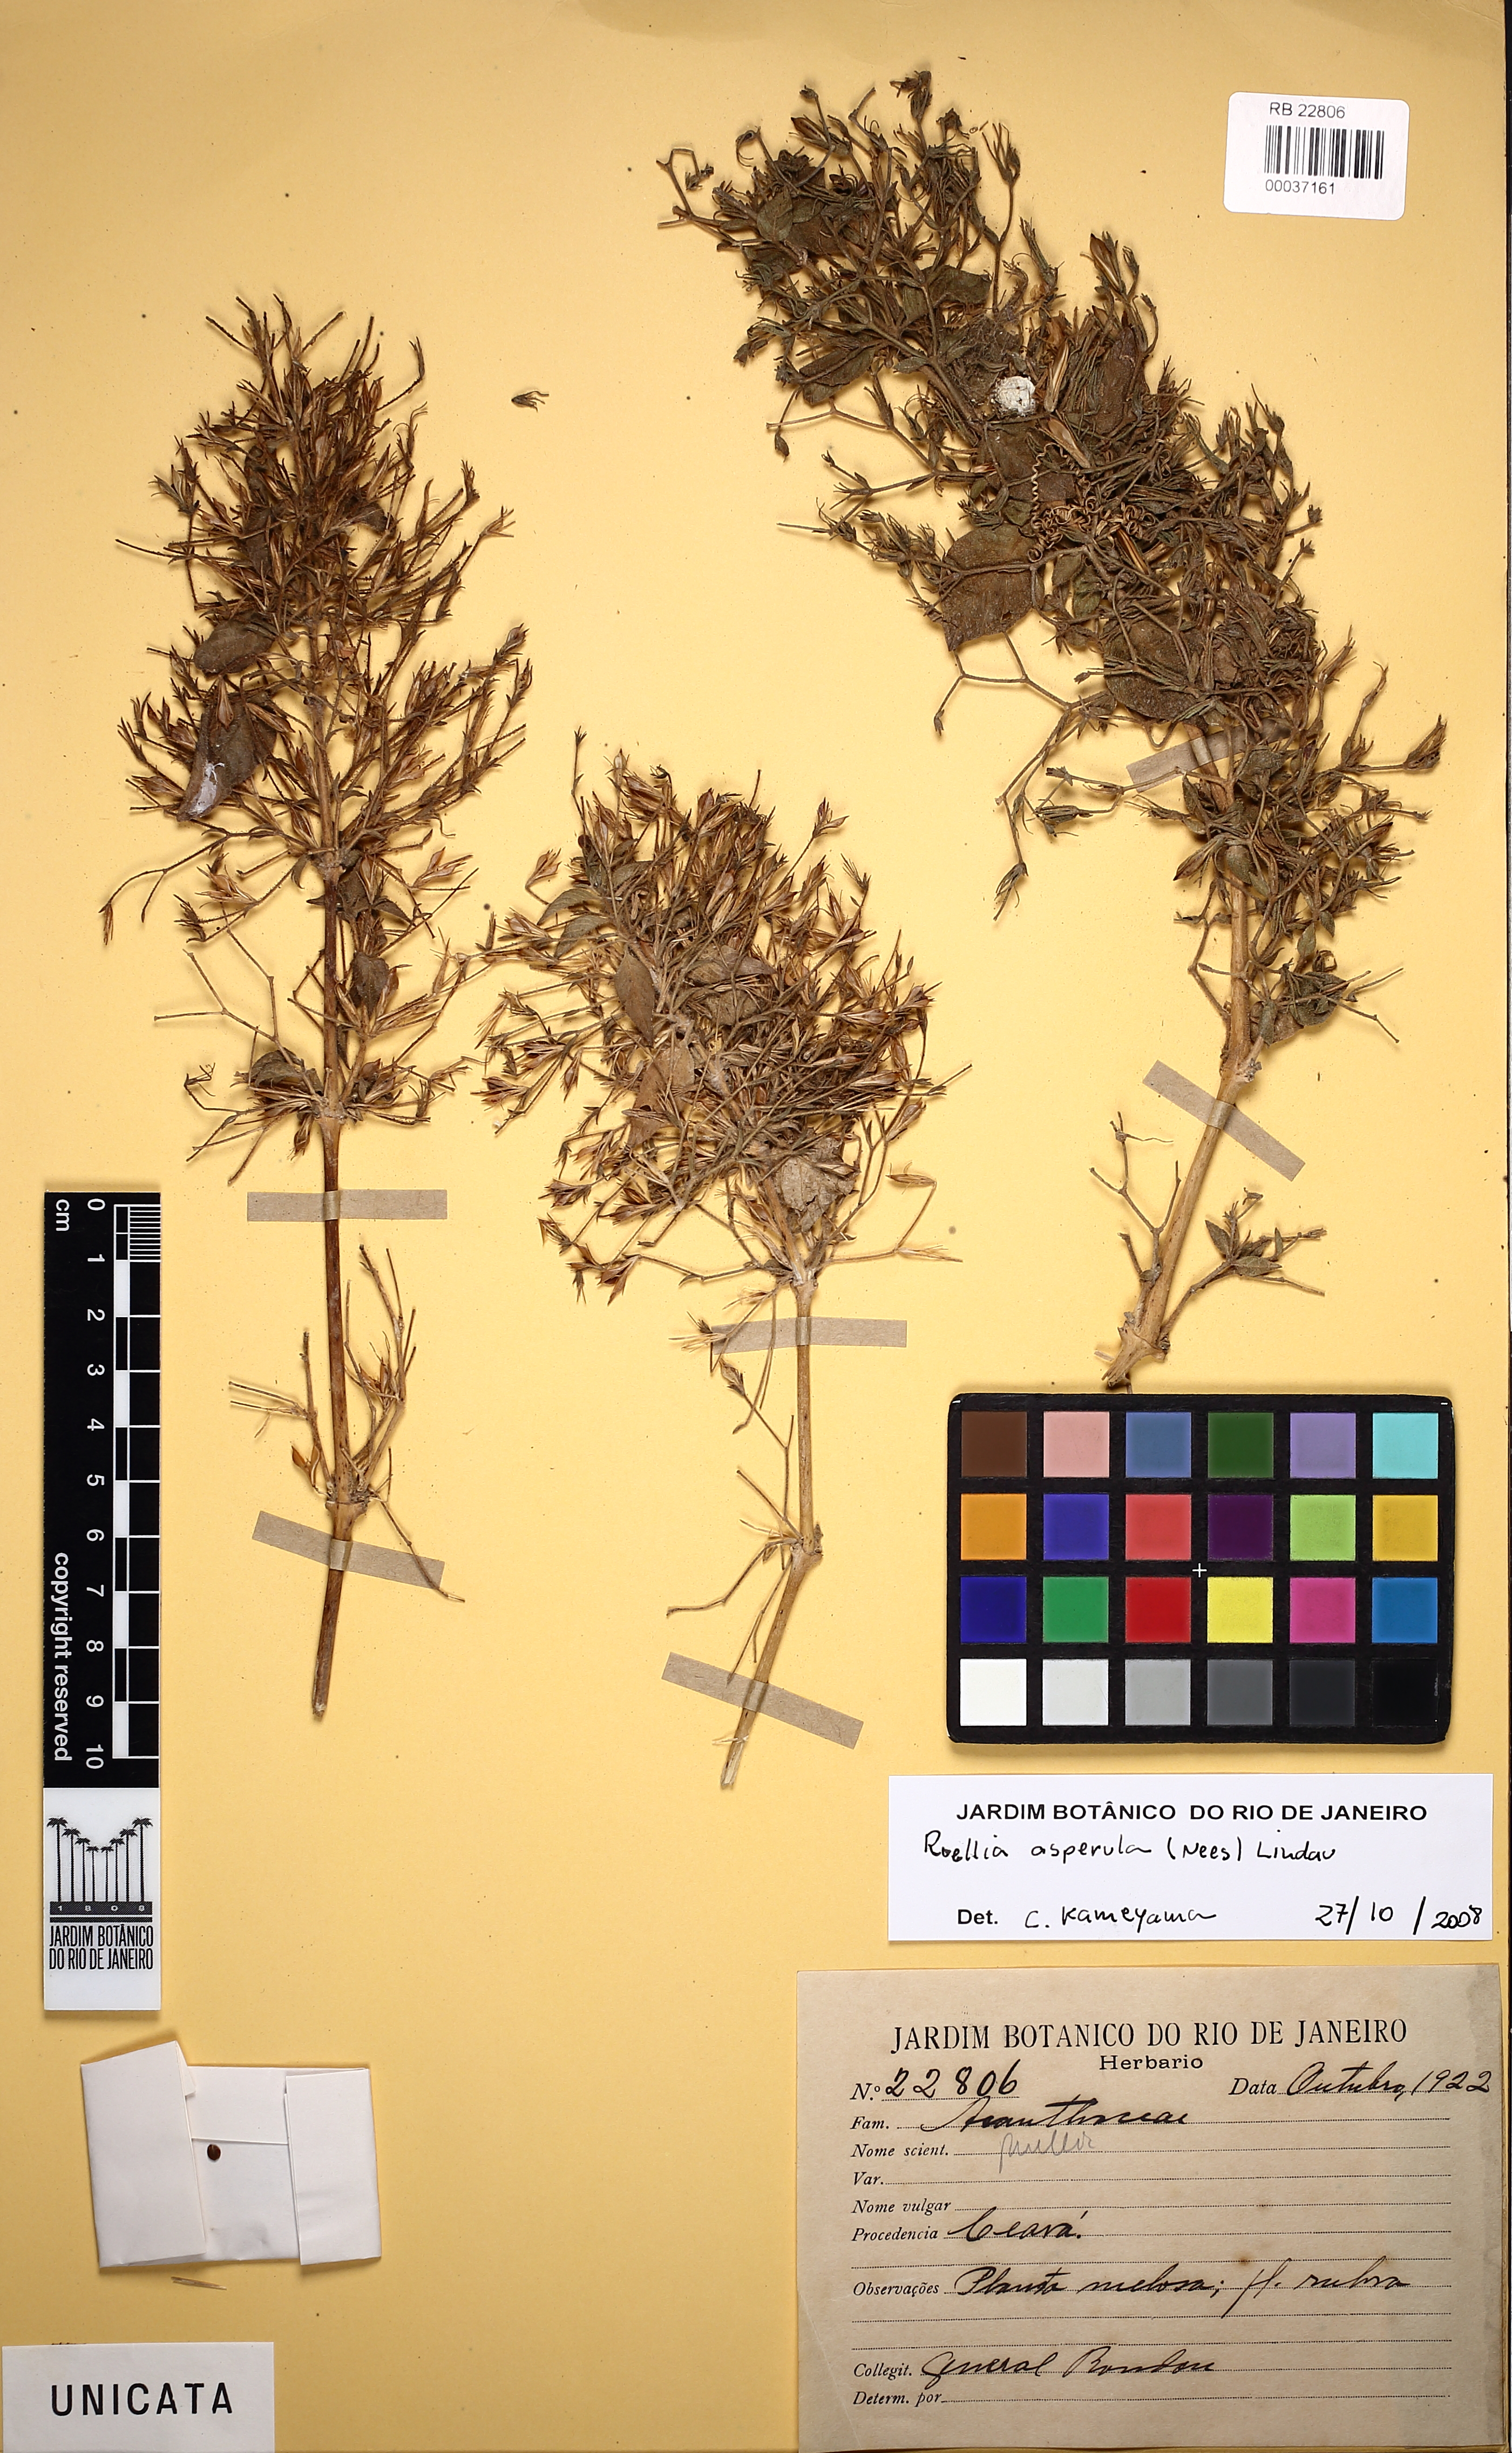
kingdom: Plantae
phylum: Tracheophyta
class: Magnoliopsida
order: Lamiales
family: Acanthaceae
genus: Ruellia
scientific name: Ruellia asperula
